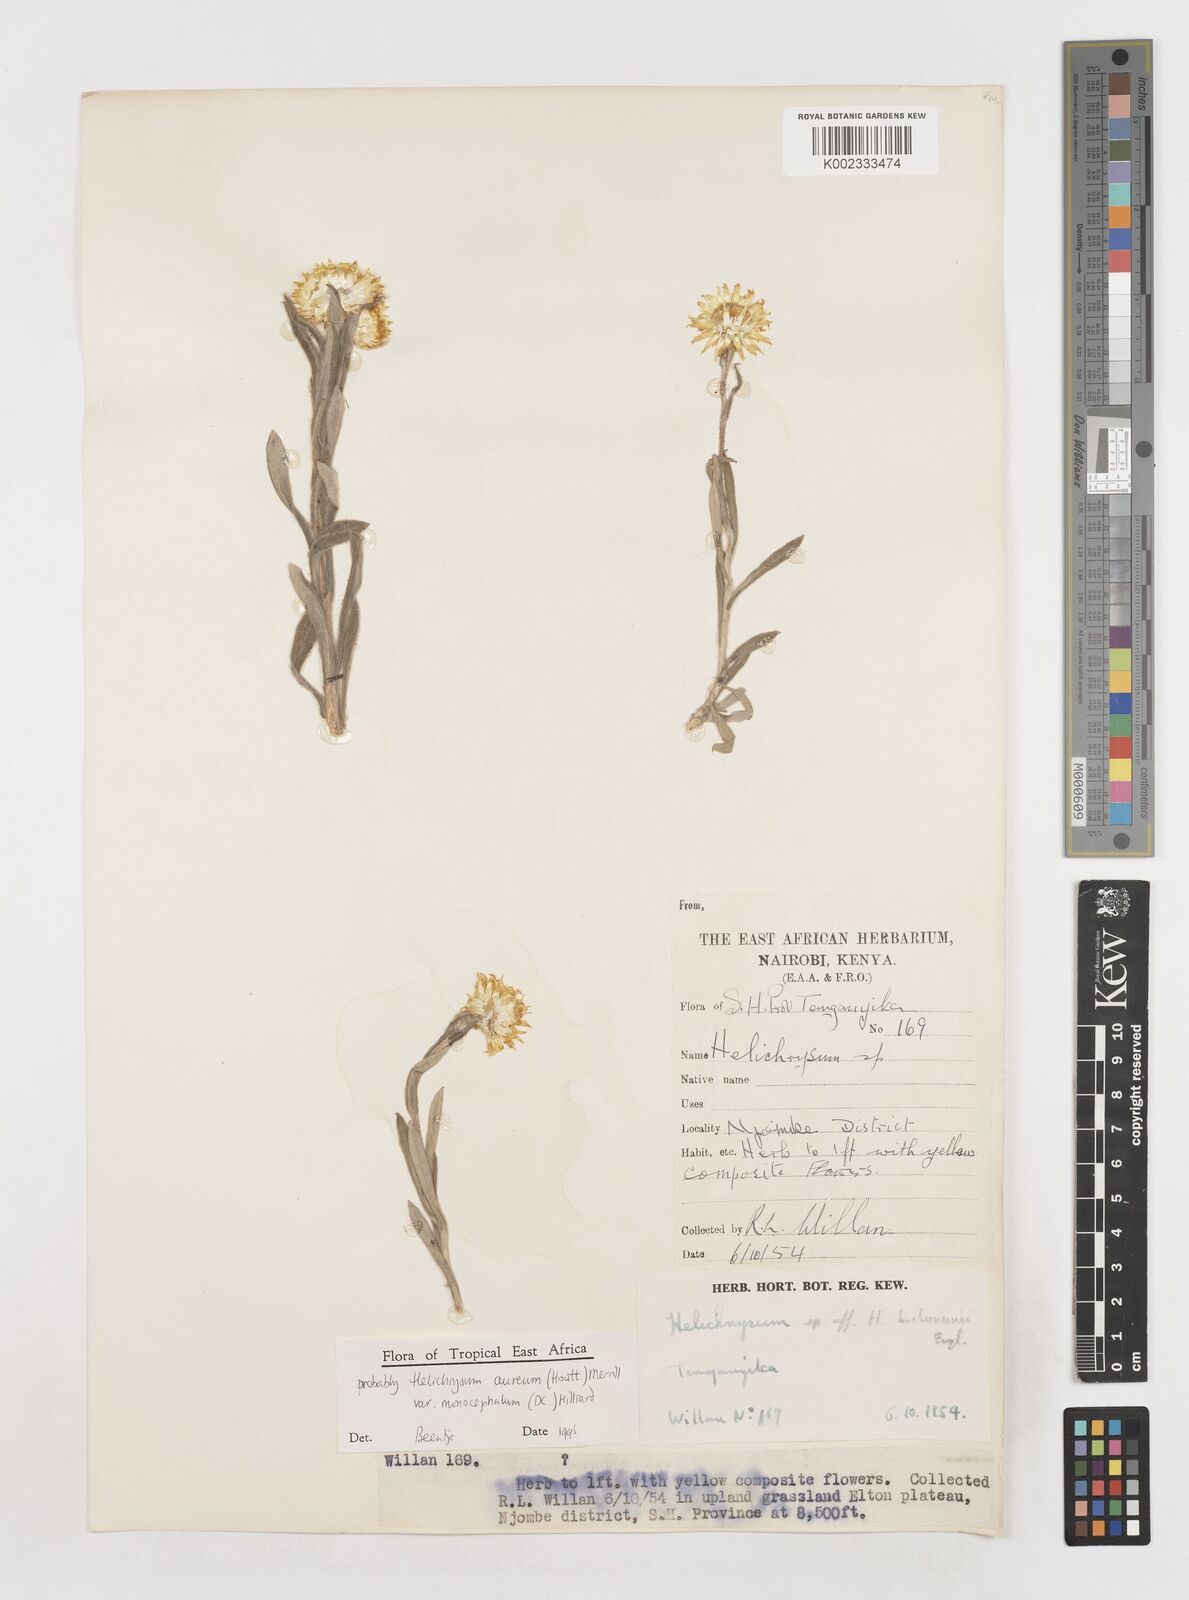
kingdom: Plantae
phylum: Tracheophyta
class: Magnoliopsida
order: Asterales
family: Asteraceae
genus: Helichrysum
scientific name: Helichrysum aureum
